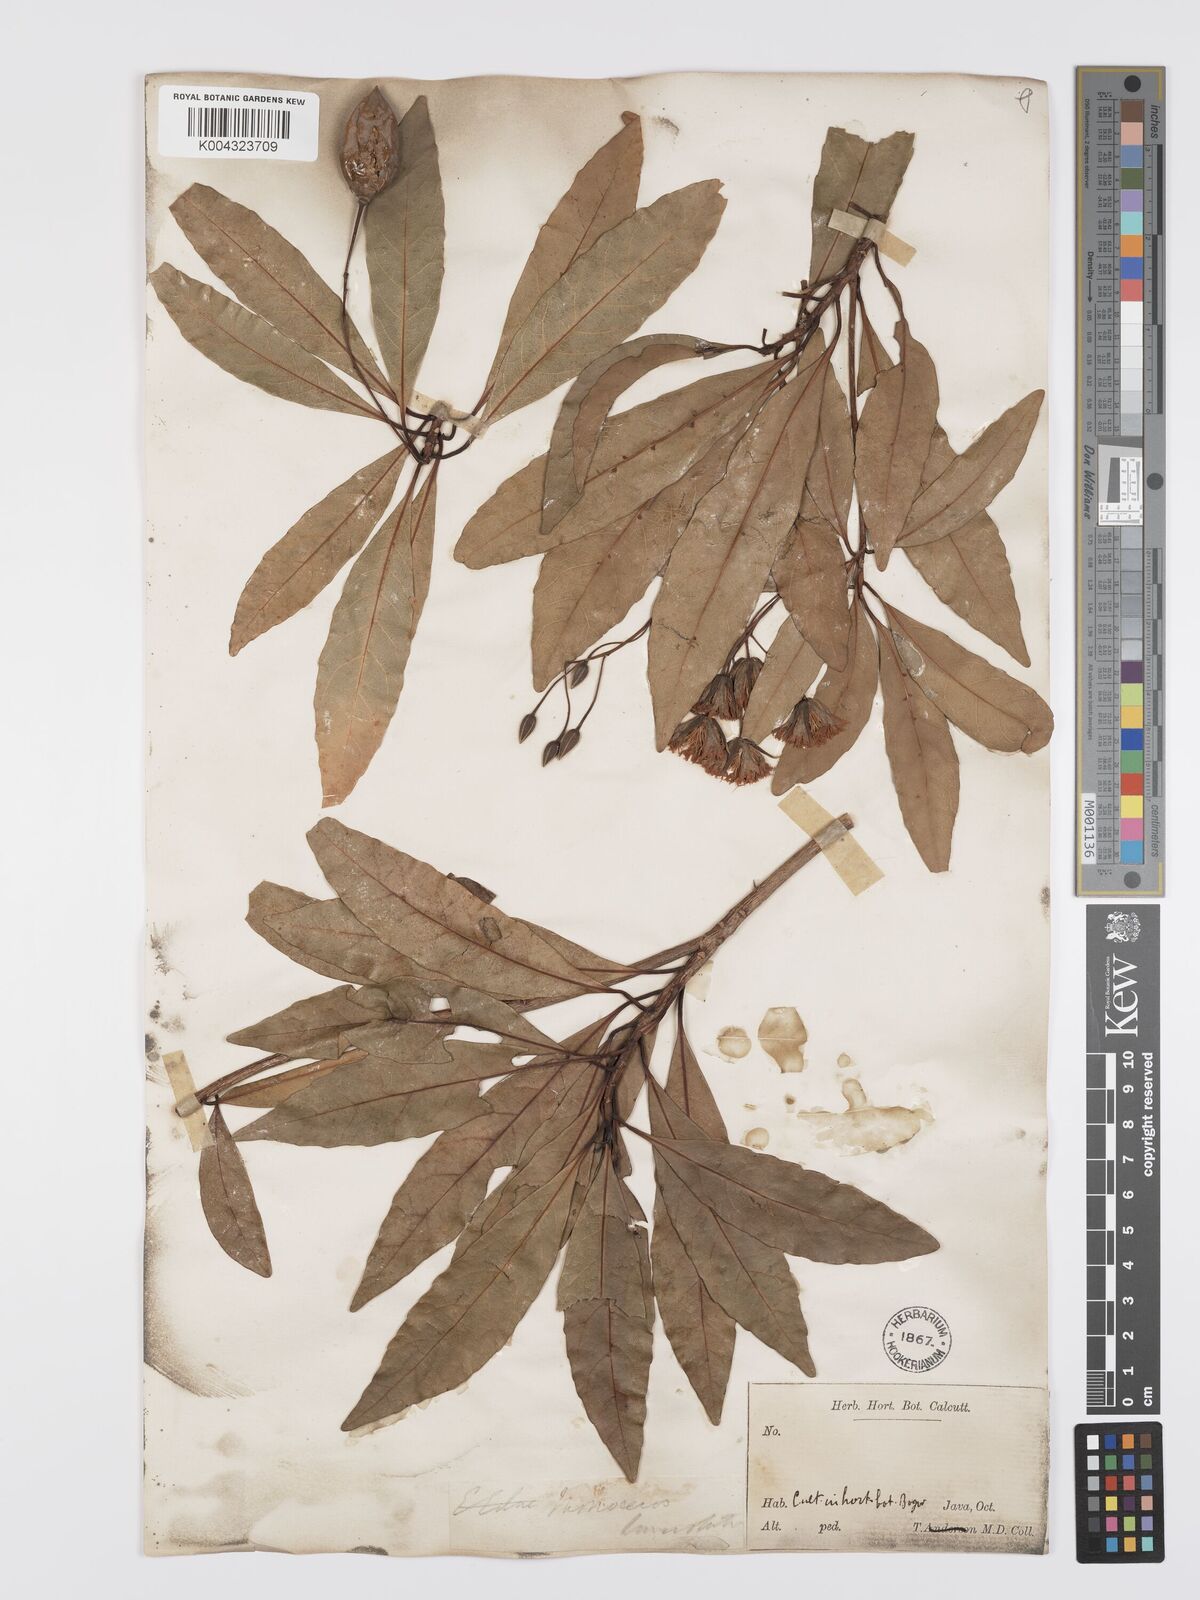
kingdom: Plantae
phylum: Tracheophyta
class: Magnoliopsida
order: Oxalidales
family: Elaeocarpaceae
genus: Elaeocarpus
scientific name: Elaeocarpus grandiflorus
